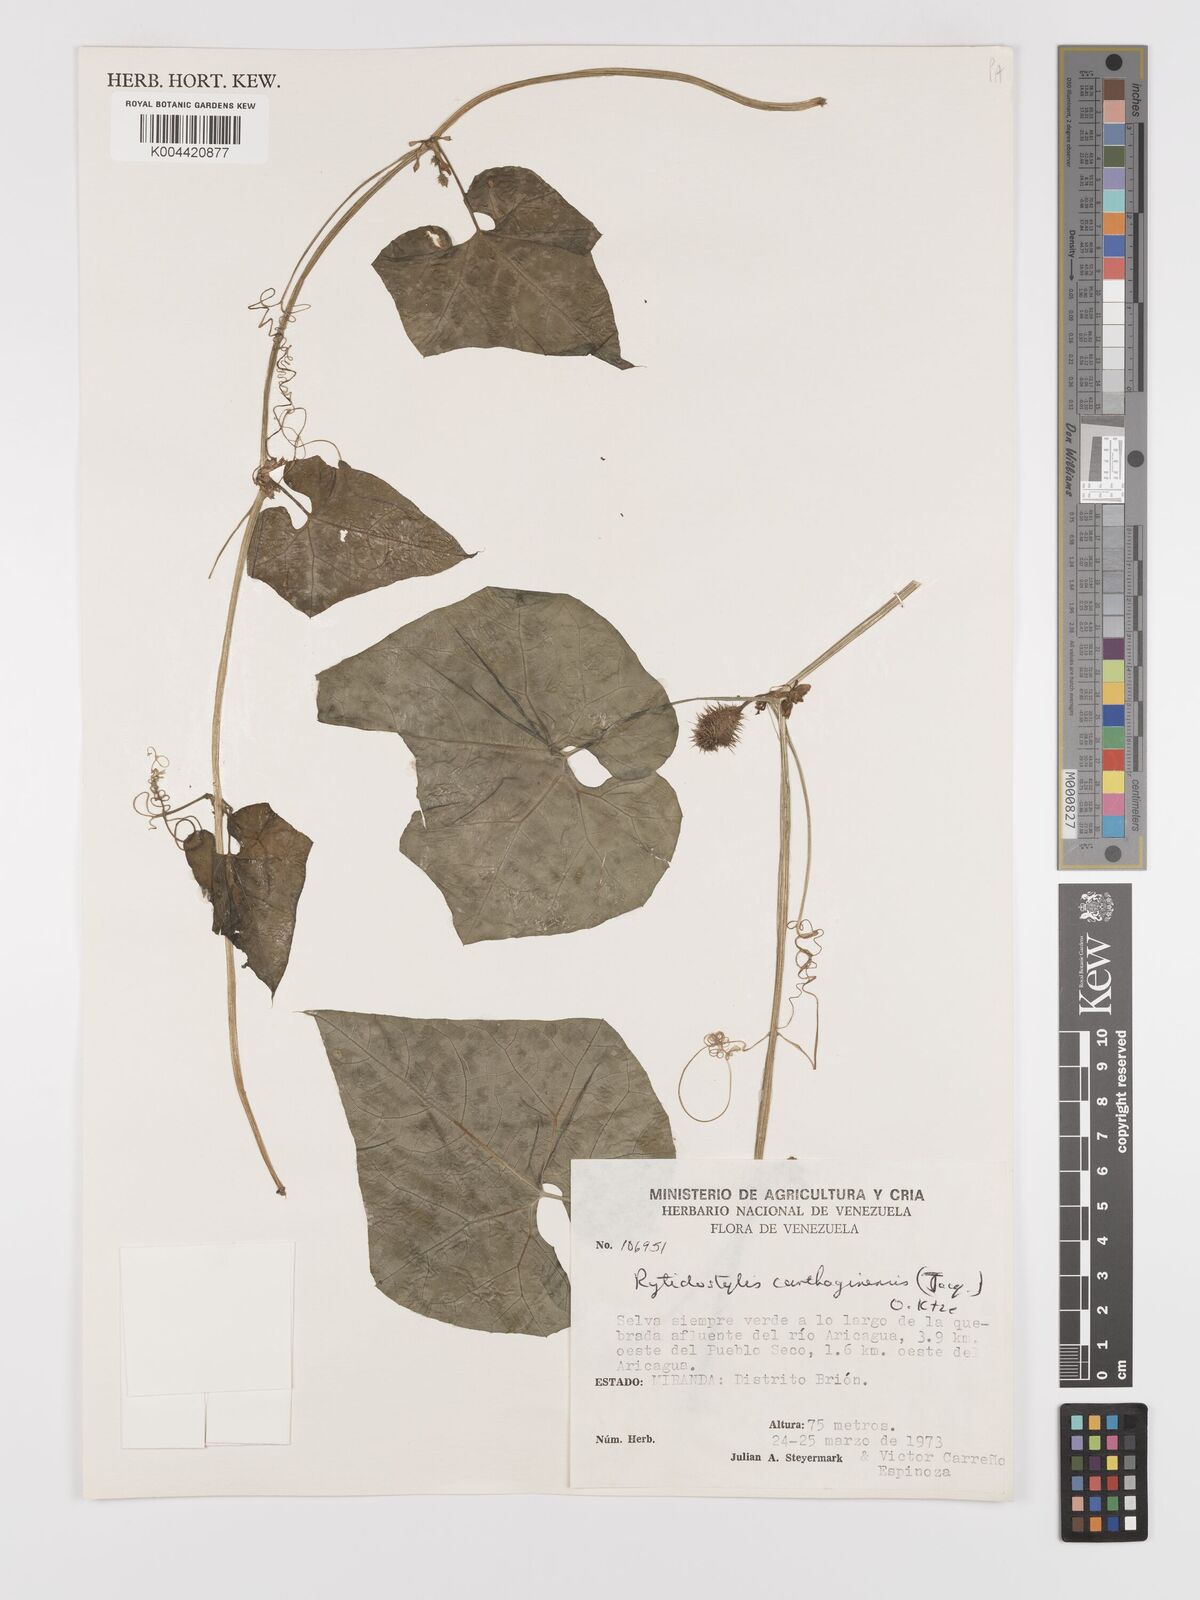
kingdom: Plantae
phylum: Tracheophyta
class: Magnoliopsida
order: Cucurbitales
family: Cucurbitaceae
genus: Cyclanthera
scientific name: Cyclanthera carthagenensis
